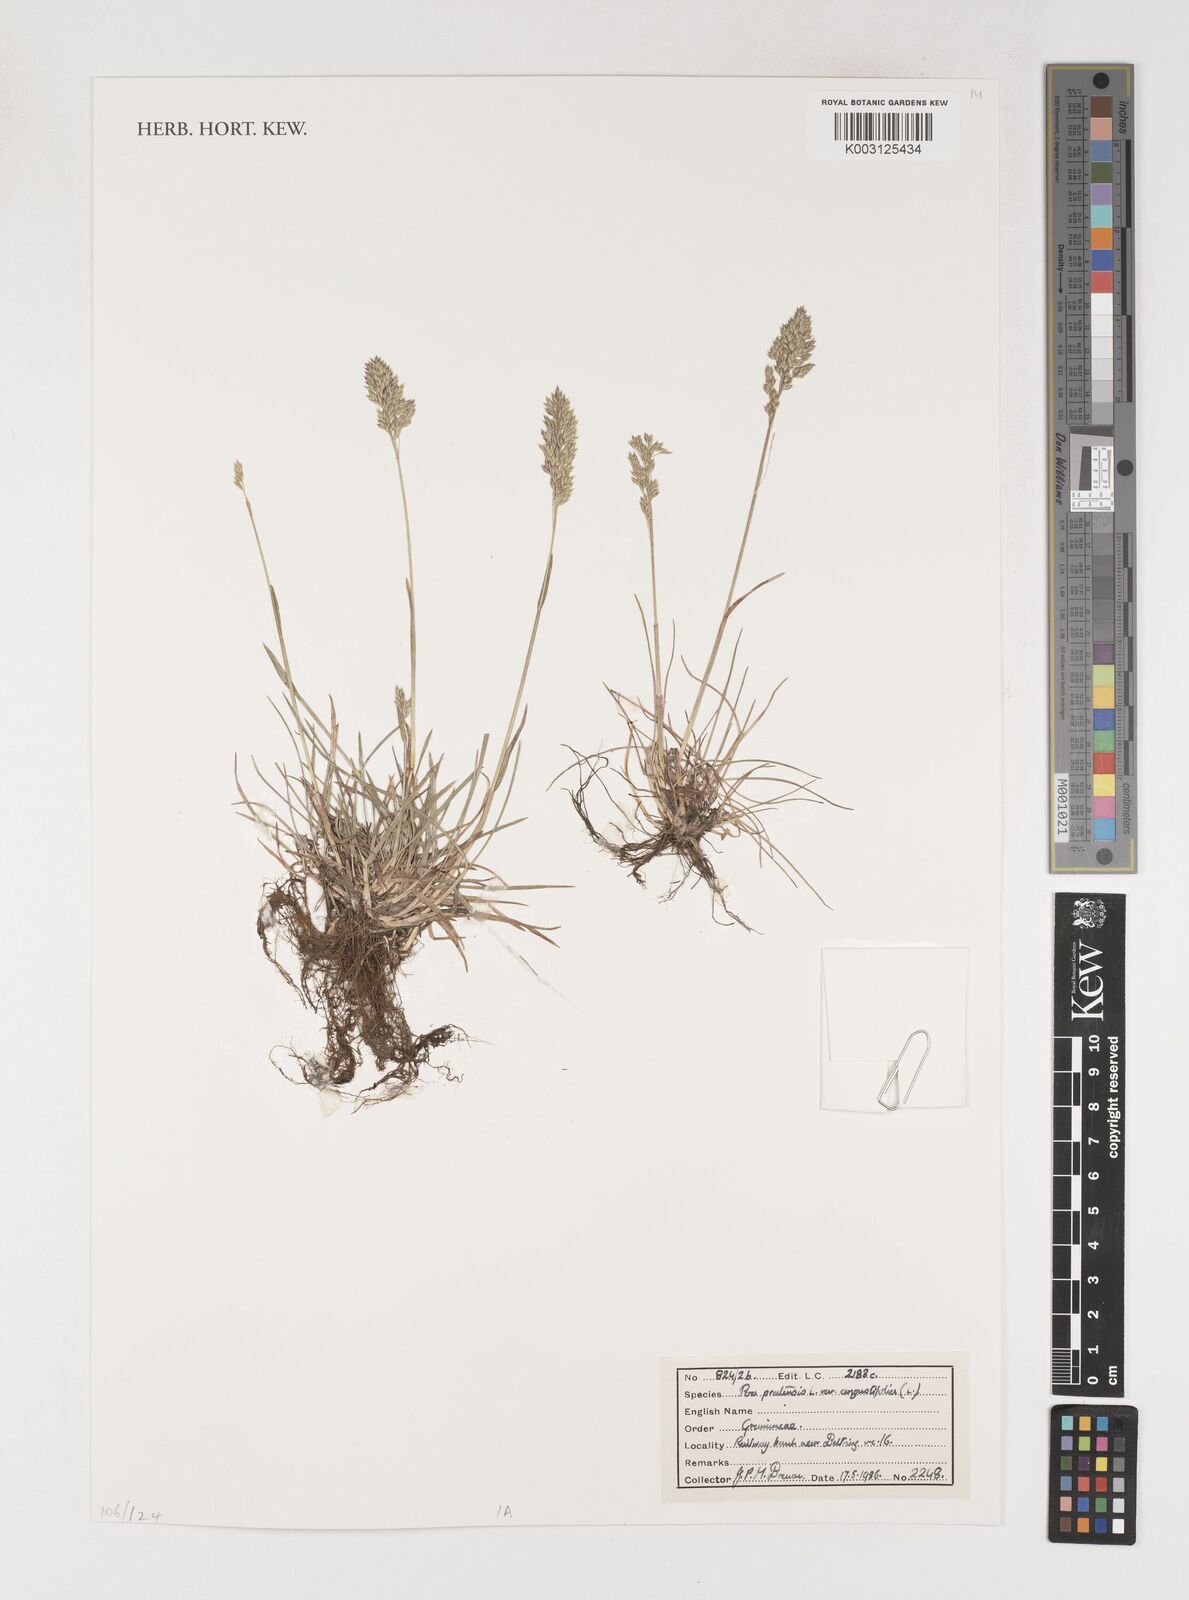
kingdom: Plantae
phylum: Tracheophyta
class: Liliopsida
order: Poales
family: Poaceae
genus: Poa
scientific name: Poa angustifolia
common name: Narrow-leaved meadow-grass
